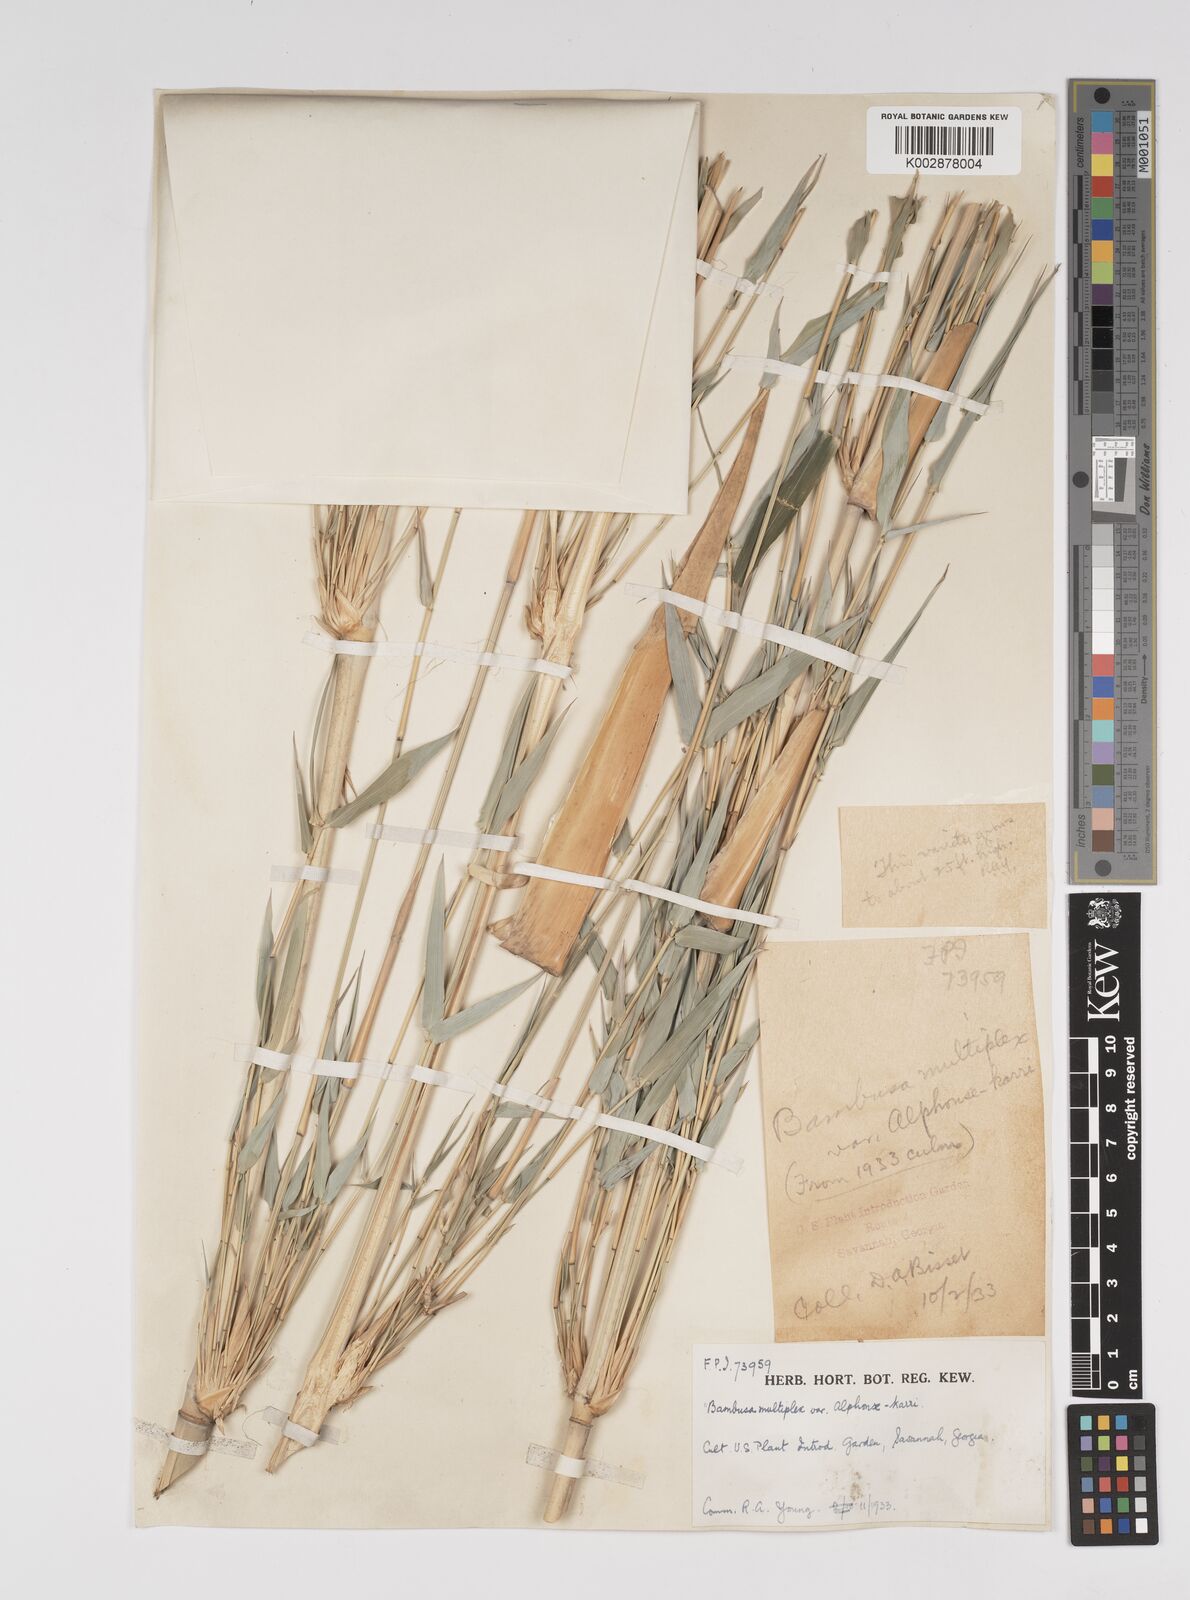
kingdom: Plantae
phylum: Tracheophyta
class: Liliopsida
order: Poales
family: Poaceae
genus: Bambusa
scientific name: Bambusa multiplex
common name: Hedge bamboo
